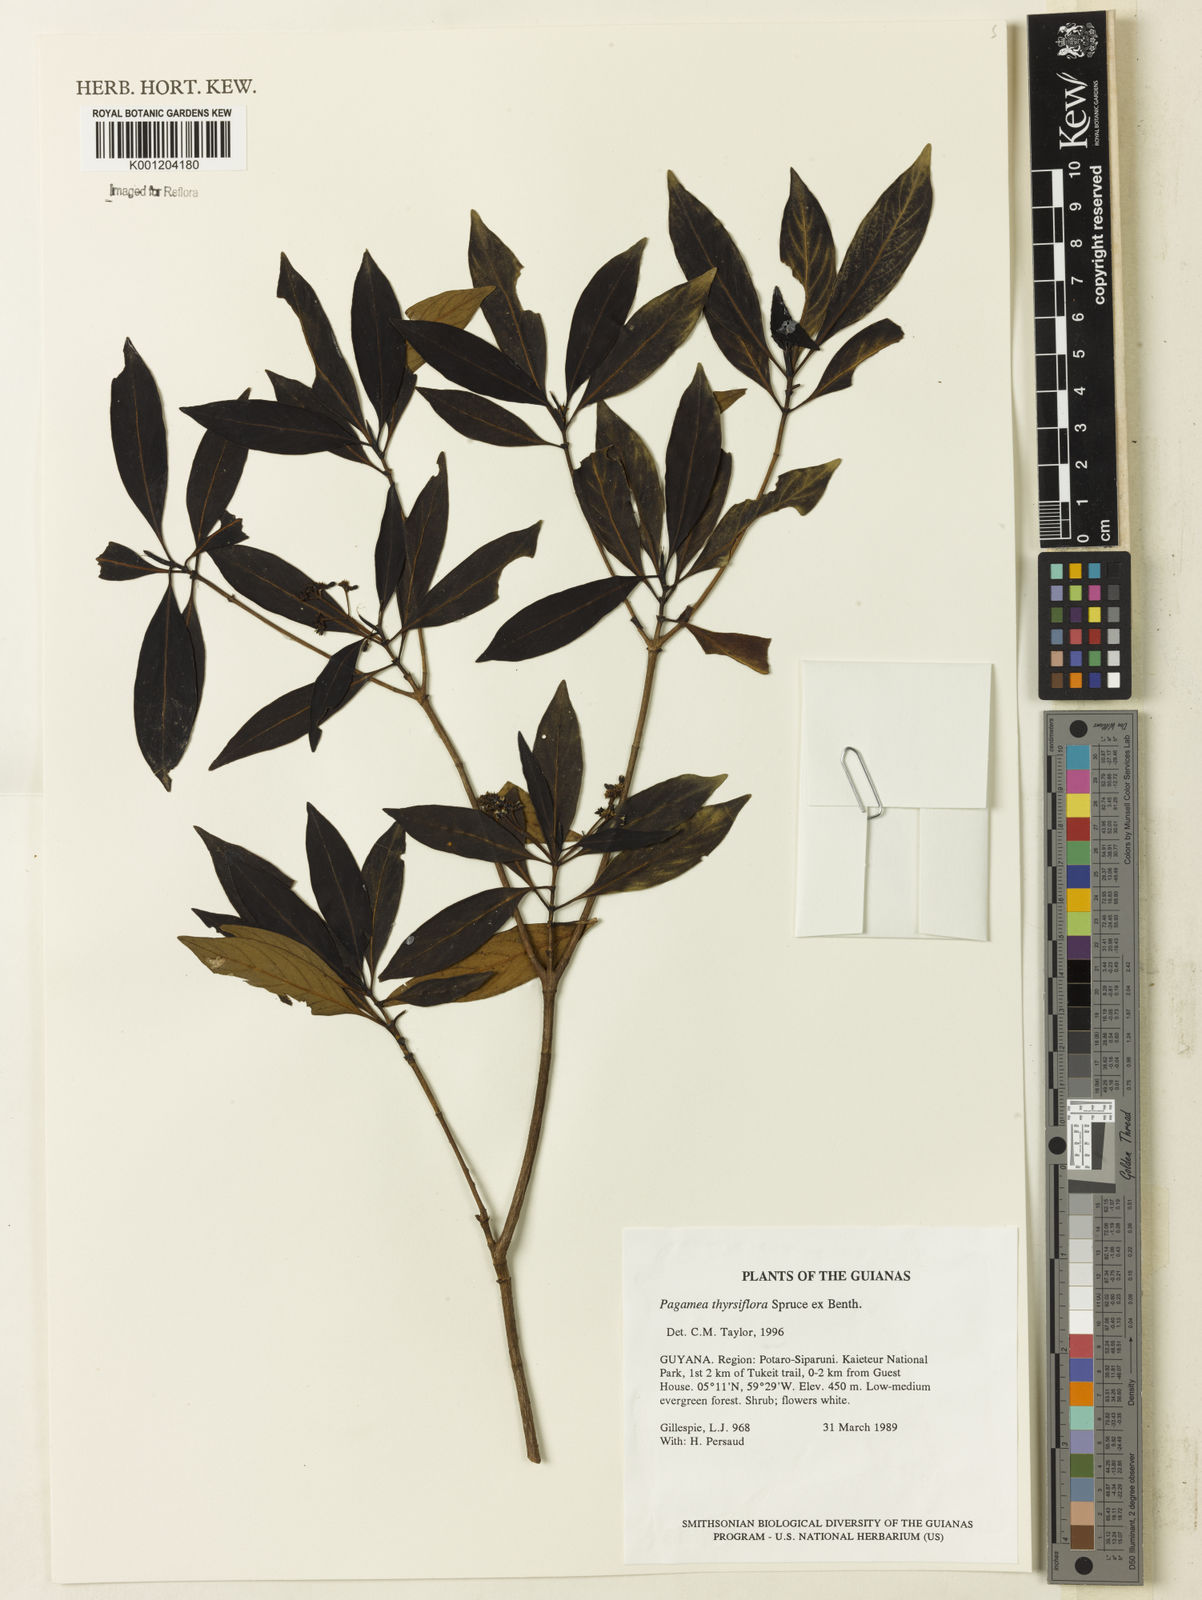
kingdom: Plantae
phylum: Tracheophyta
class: Magnoliopsida
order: Gentianales
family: Rubiaceae
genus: Pagamea
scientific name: Pagamea thyrsiflora
